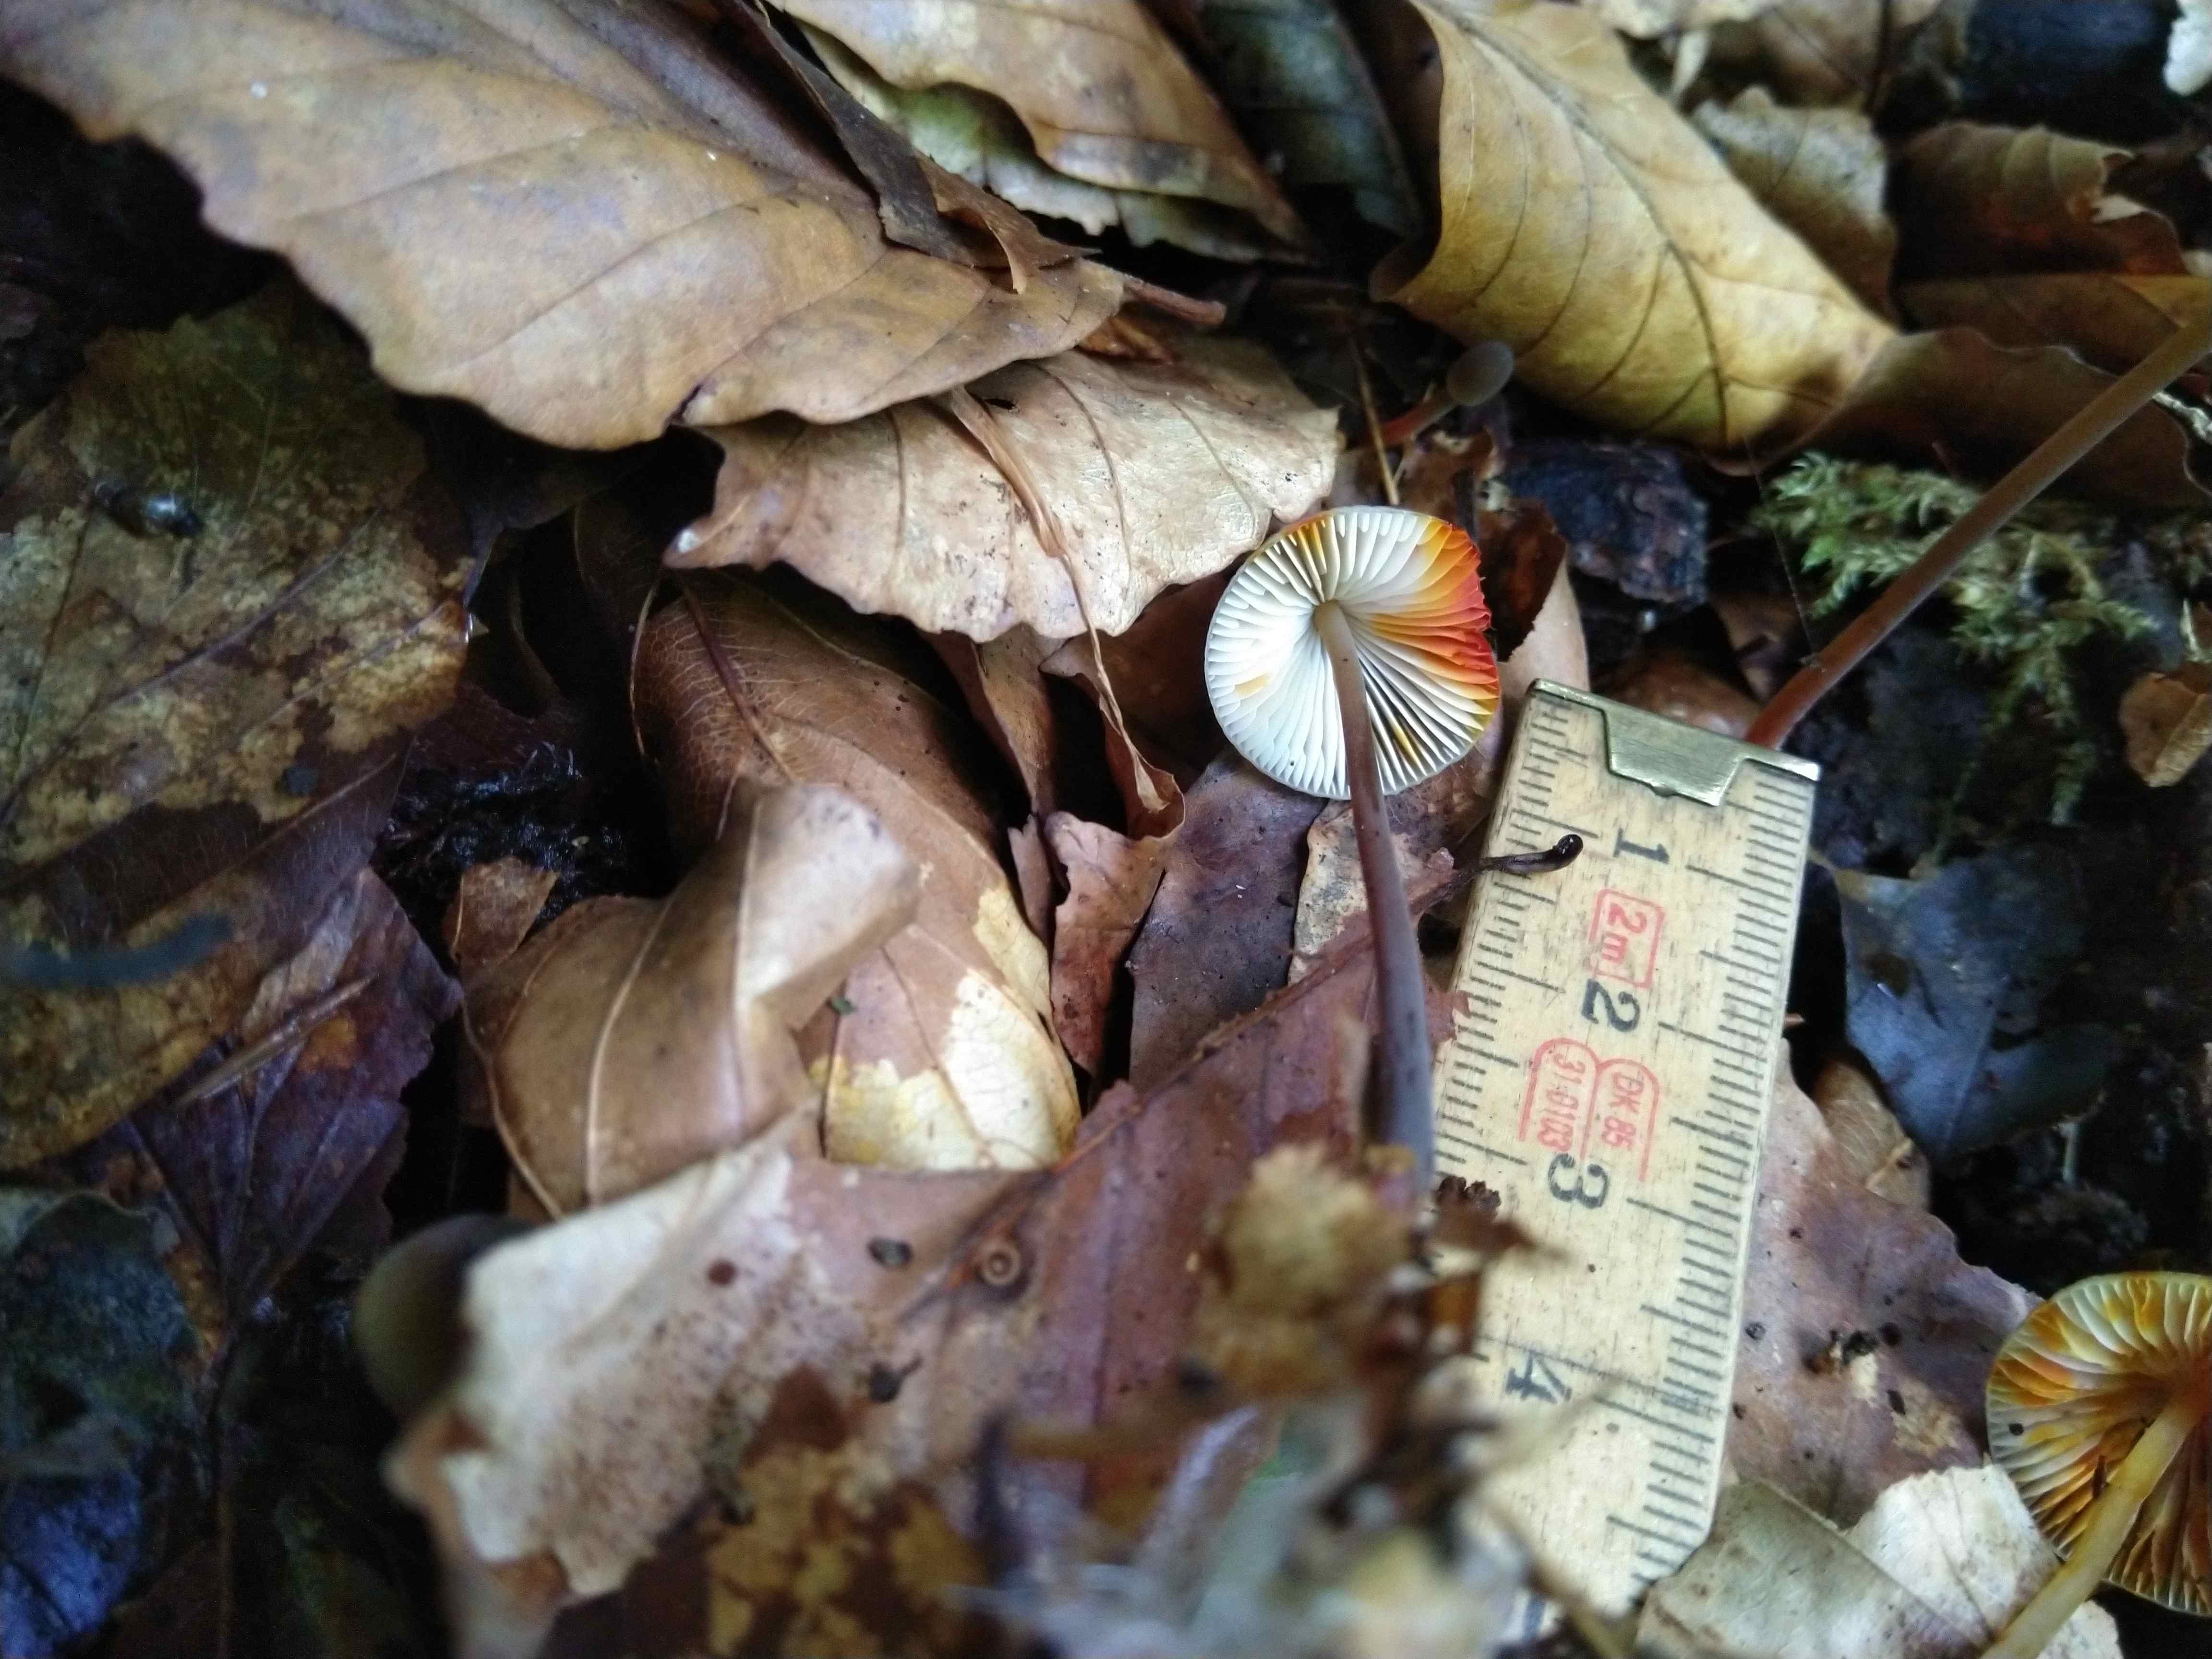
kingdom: Fungi
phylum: Basidiomycota
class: Agaricomycetes
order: Agaricales
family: Mycenaceae
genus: Mycena
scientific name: Mycena crocata
